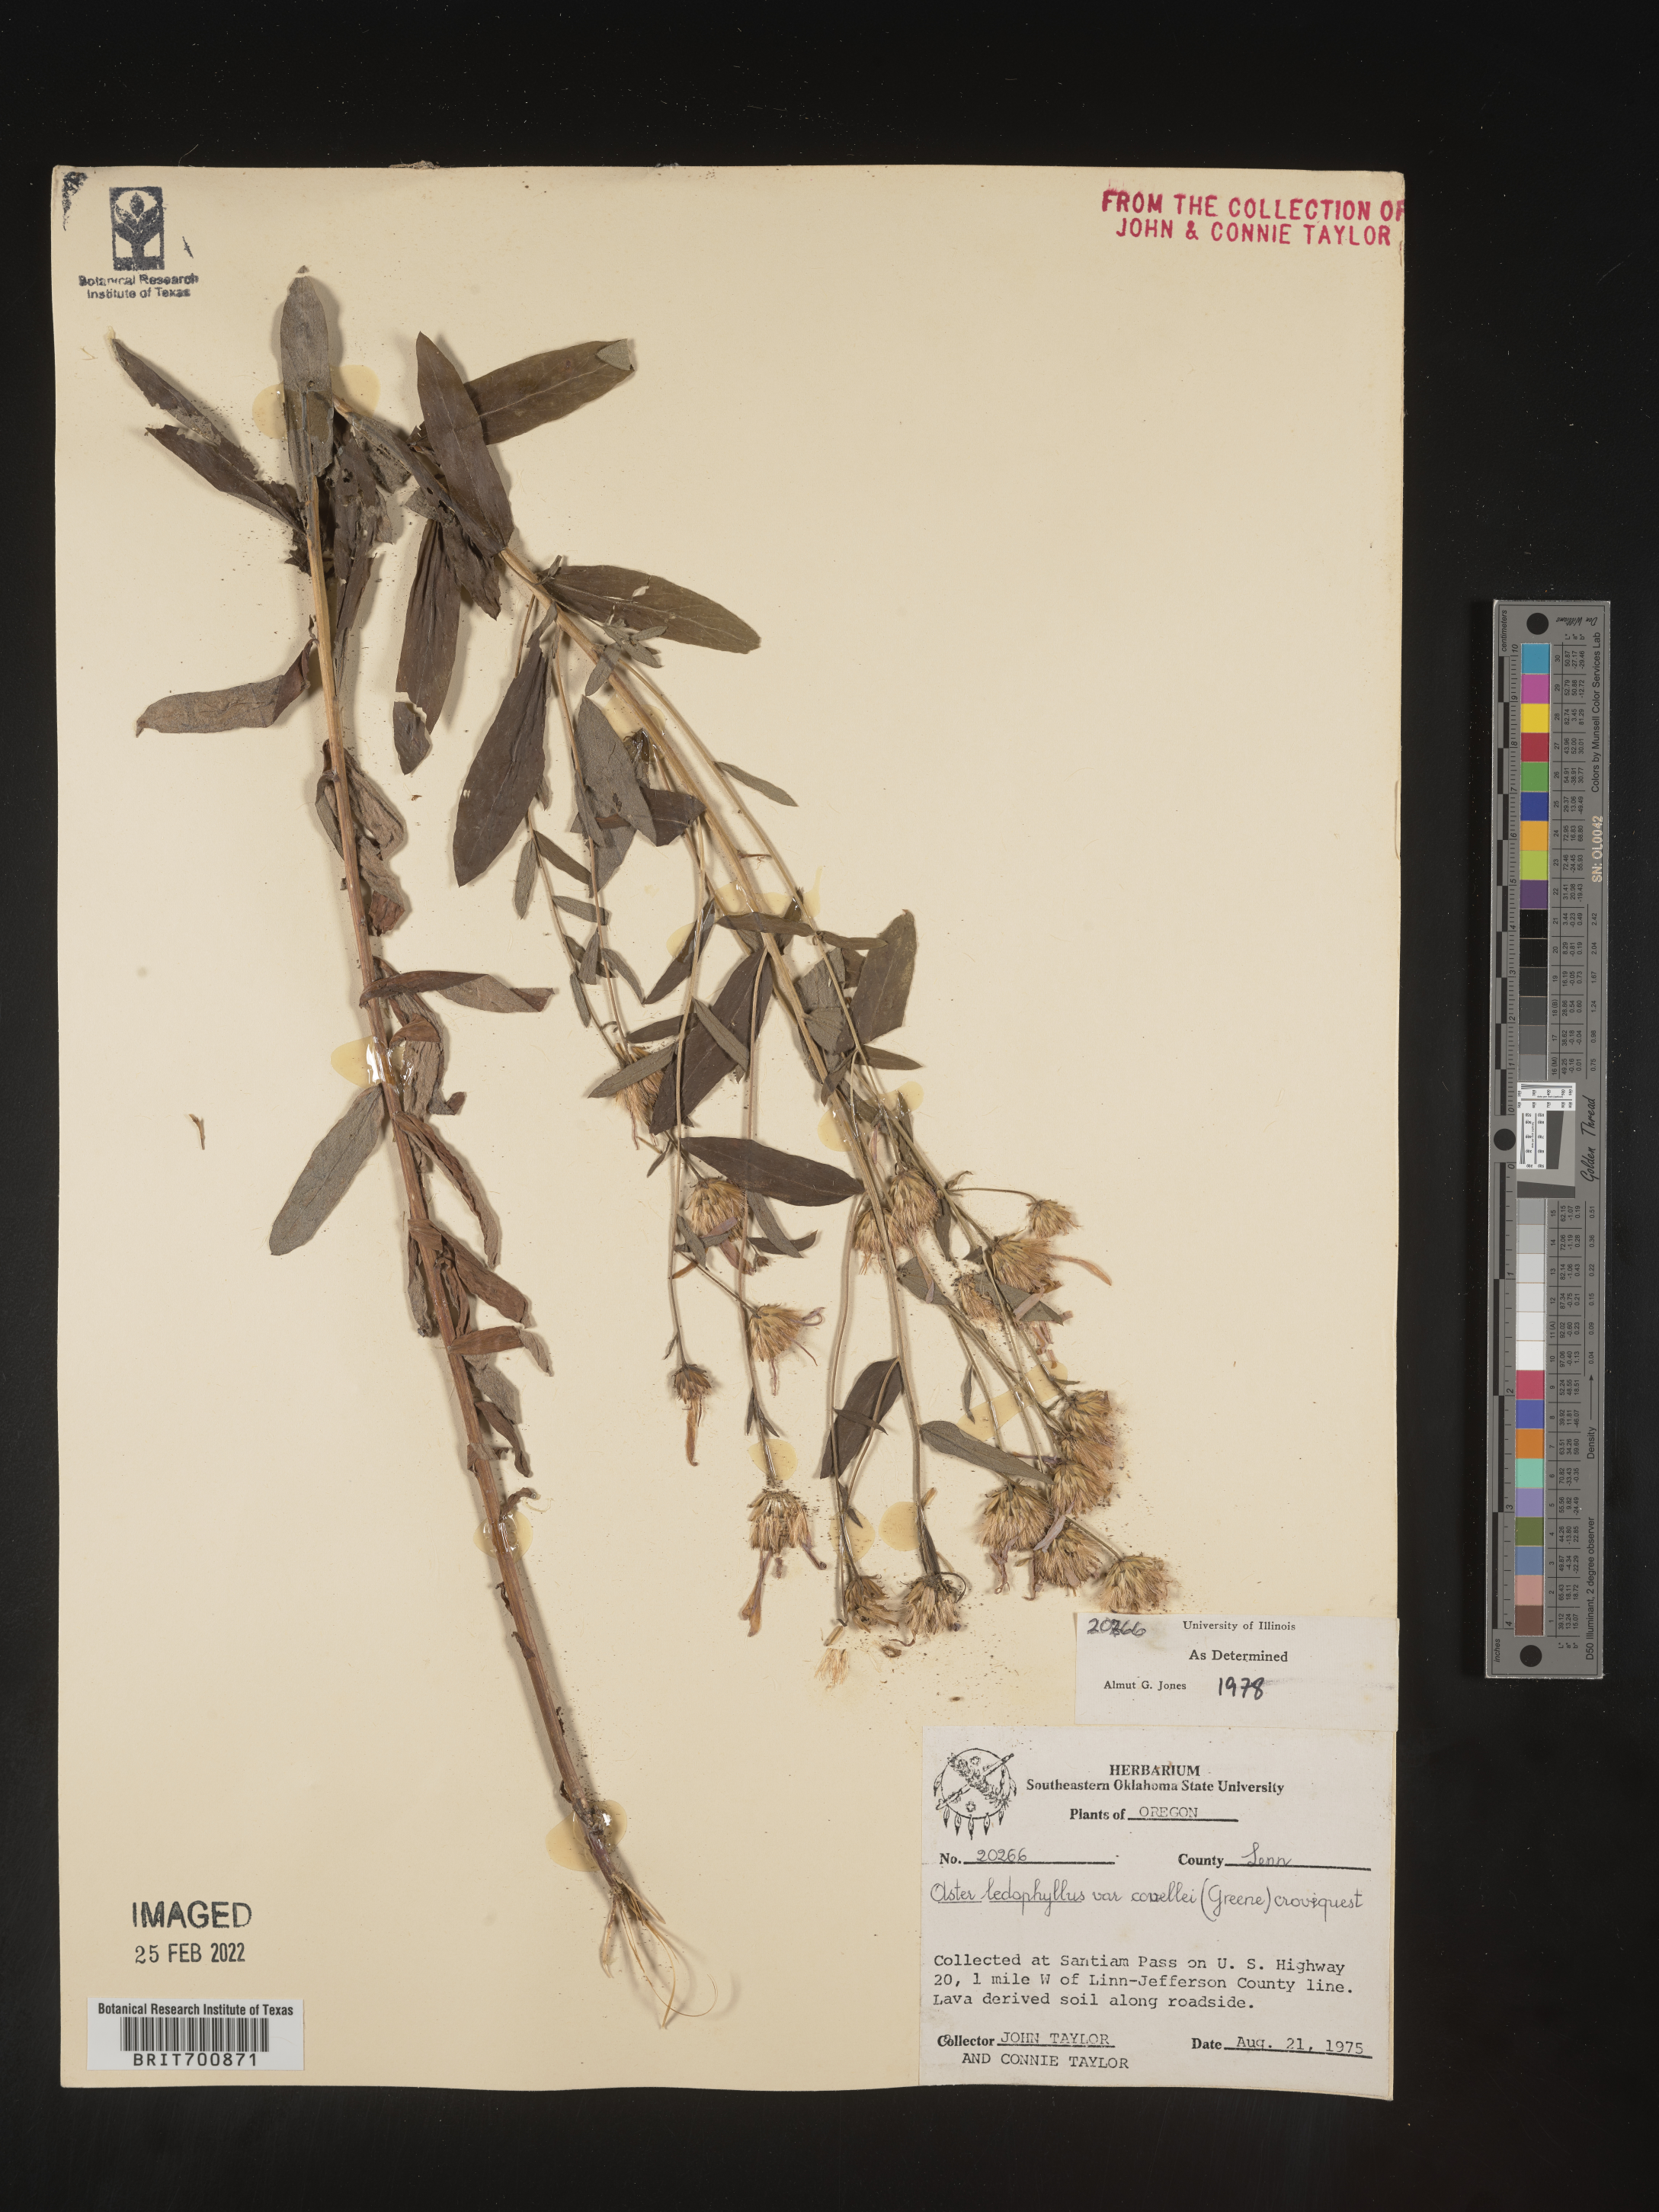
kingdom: Plantae
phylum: Tracheophyta
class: Magnoliopsida
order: Asterales
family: Asteraceae
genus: Eucephalus
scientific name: Eucephalus ledophyllus
